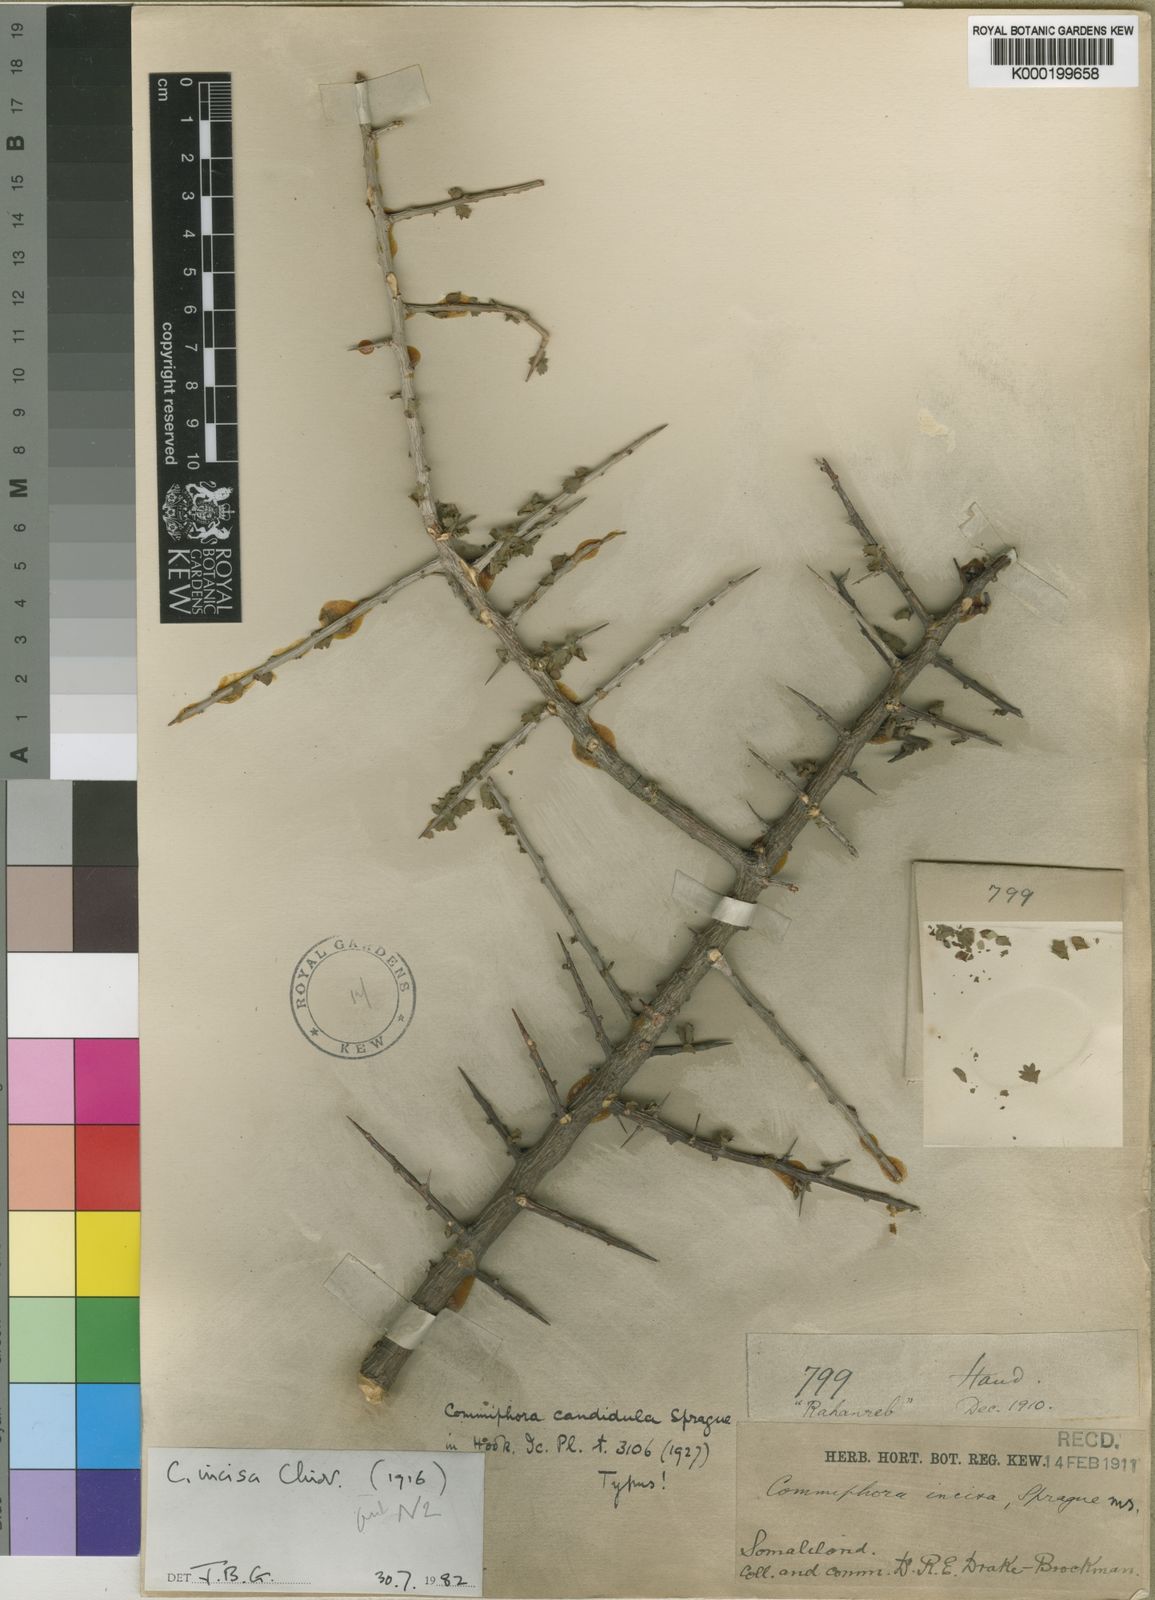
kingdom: Plantae
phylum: Tracheophyta
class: Magnoliopsida
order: Sapindales
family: Burseraceae
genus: Commiphora
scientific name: Commiphora kua
